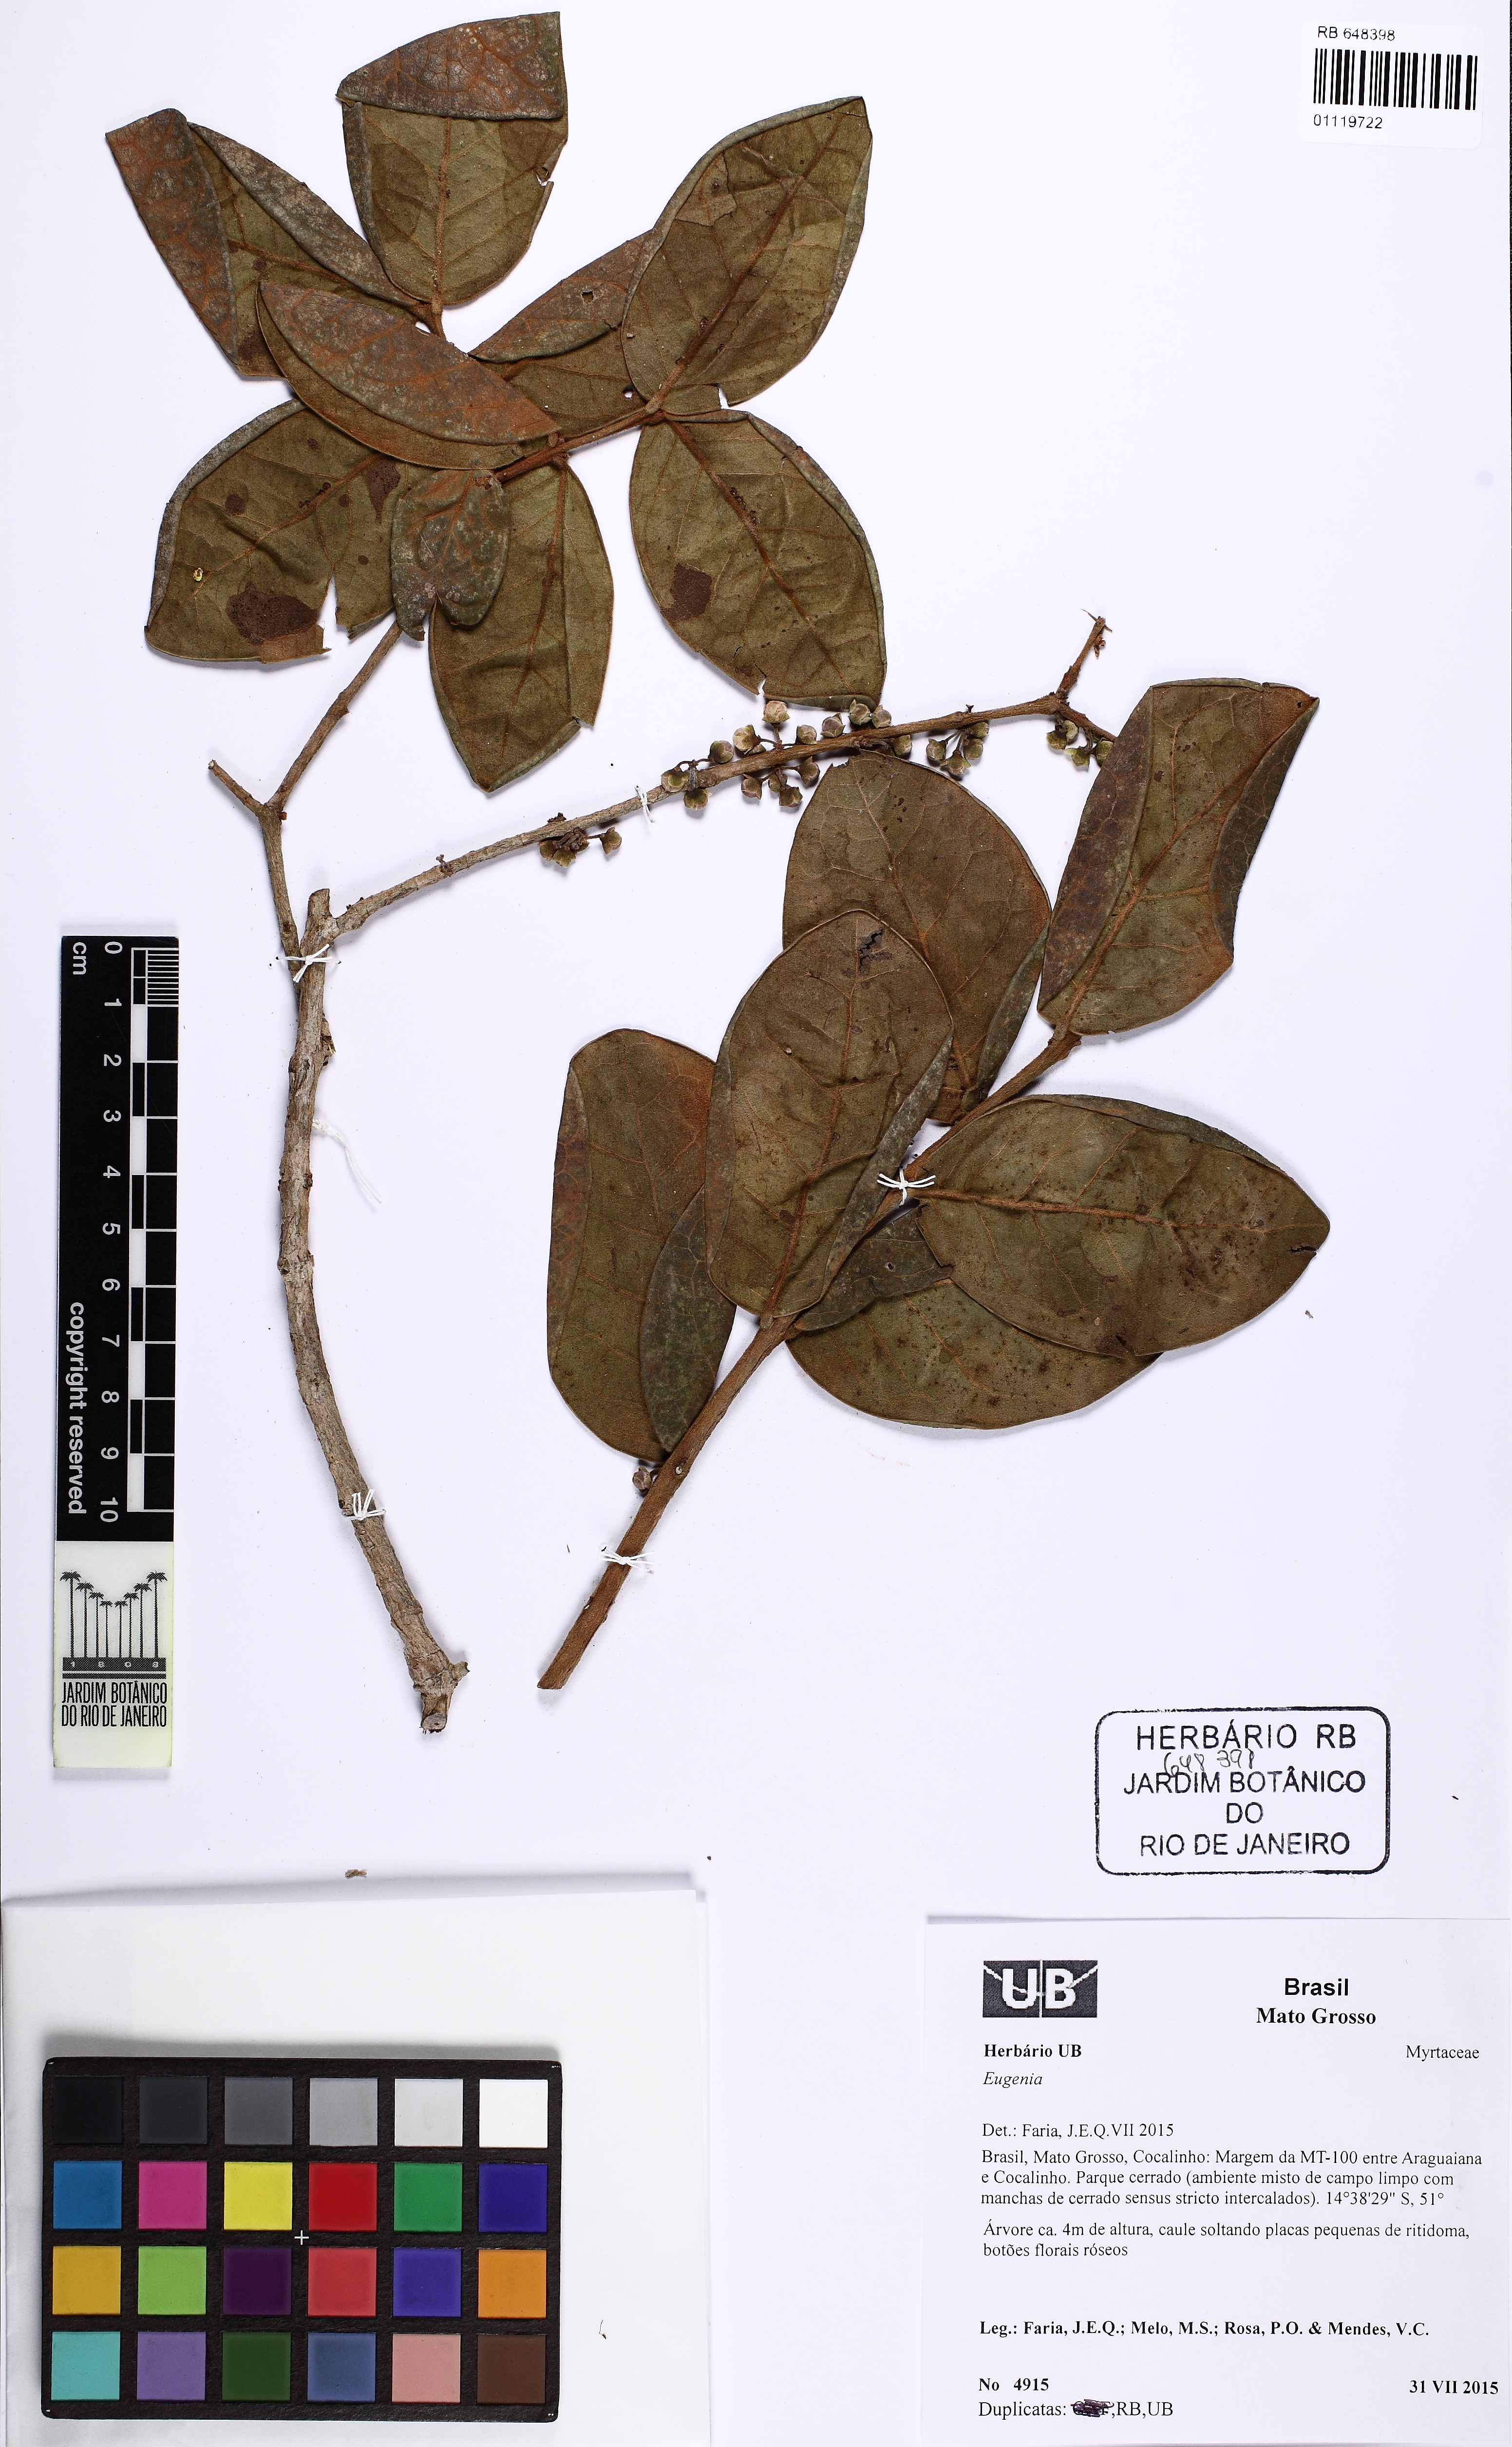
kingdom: Plantae
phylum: Tracheophyta
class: Magnoliopsida
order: Myrtales
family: Myrtaceae
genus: Eugenia
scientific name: Eugenia cerradensis
